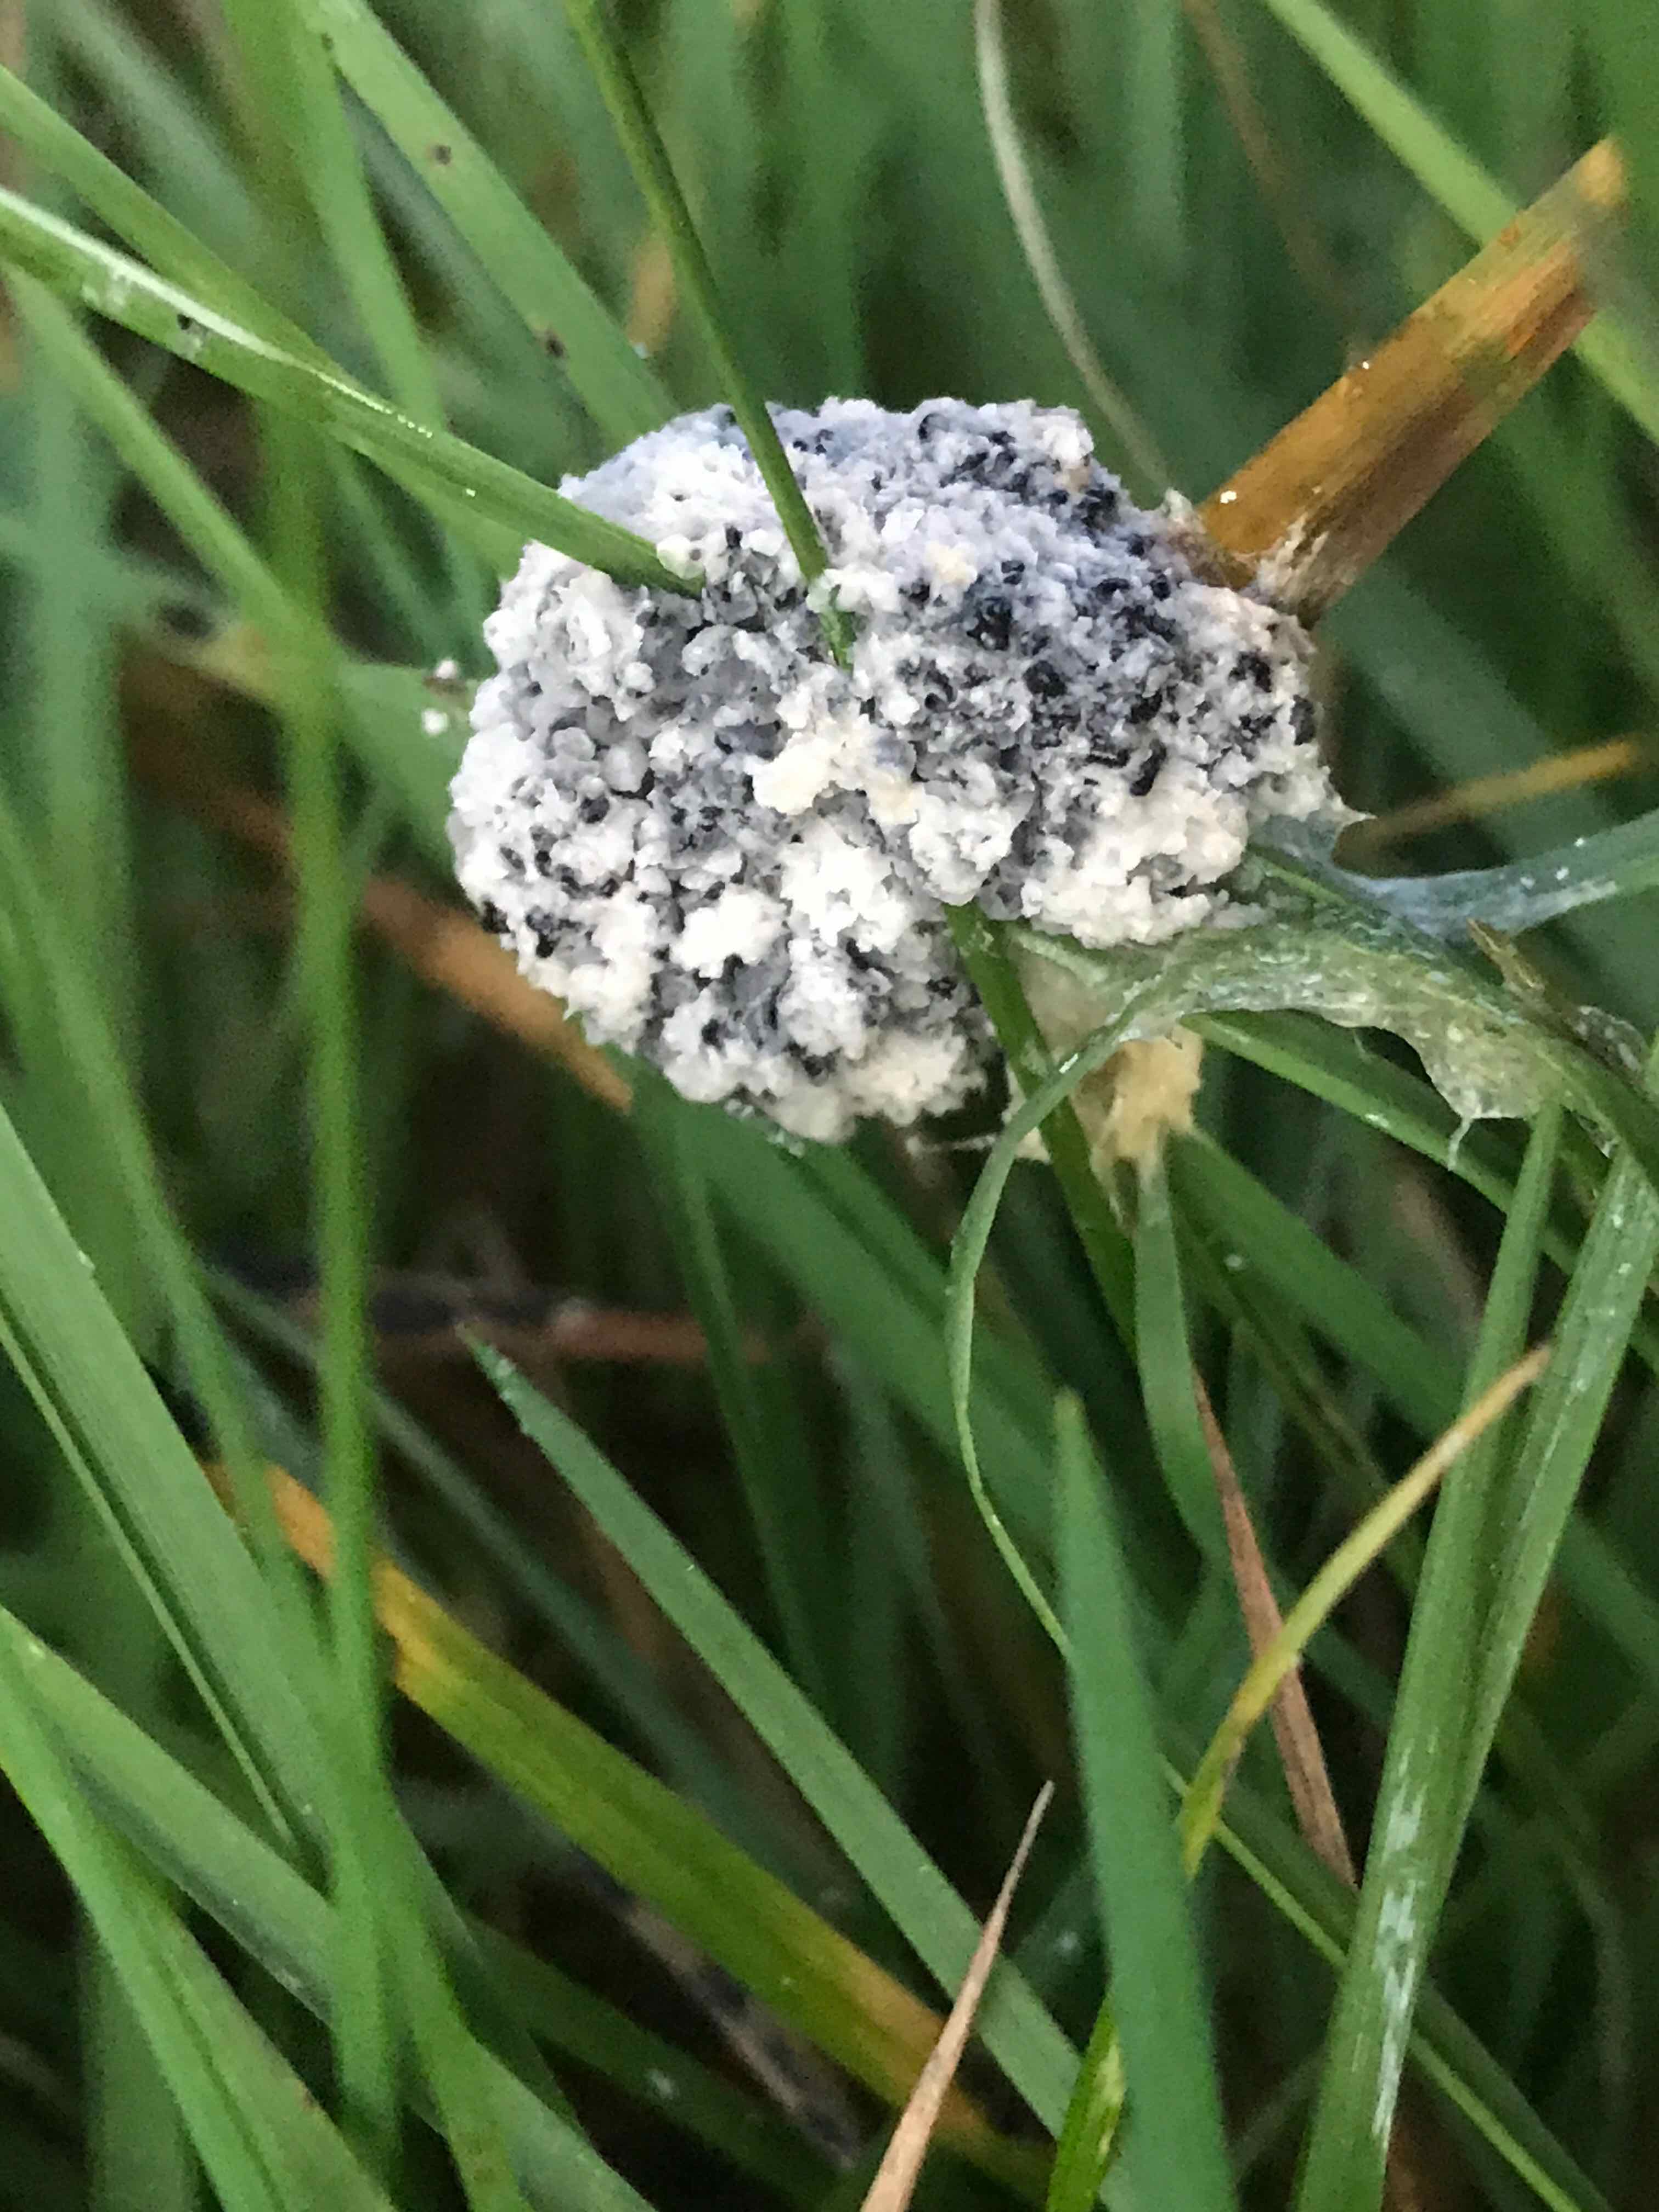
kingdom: Protozoa
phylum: Mycetozoa
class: Myxomycetes
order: Physarales
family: Physaraceae
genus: Didymium
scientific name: Didymium
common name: urteskum
